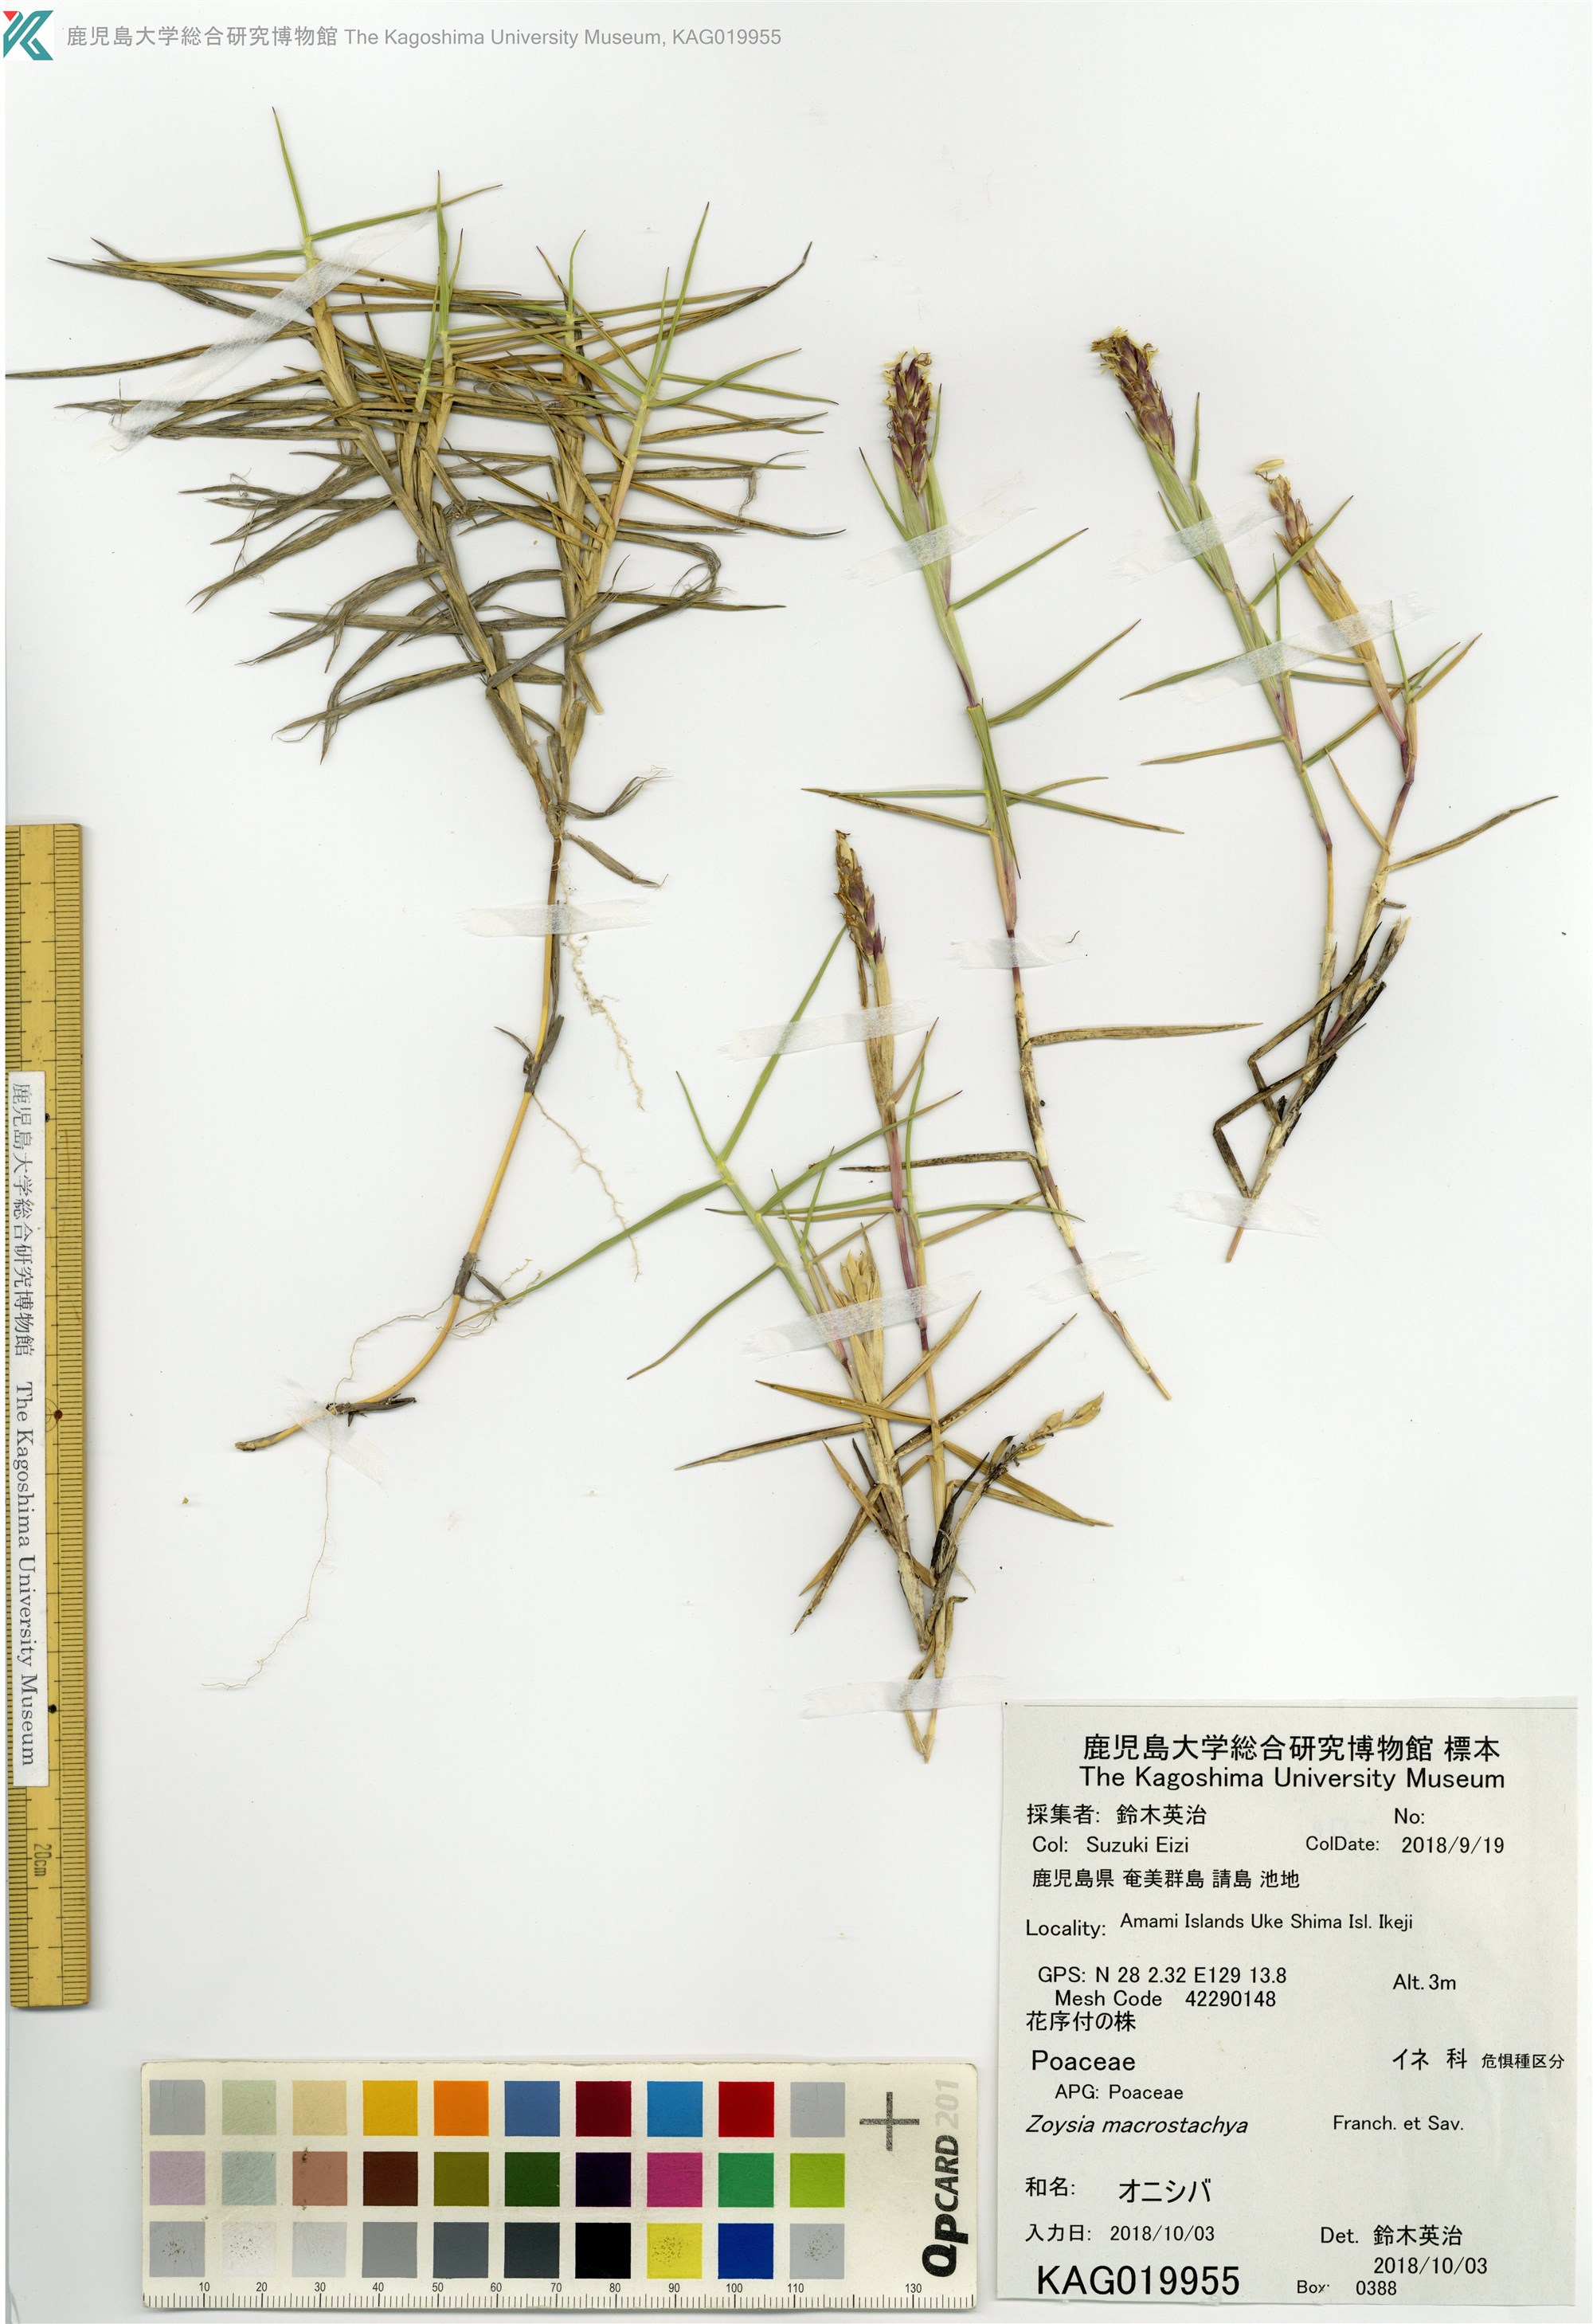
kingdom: Plantae
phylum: Tracheophyta
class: Liliopsida
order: Poales
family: Poaceae
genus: Zoysia
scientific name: Zoysia macrostachya
